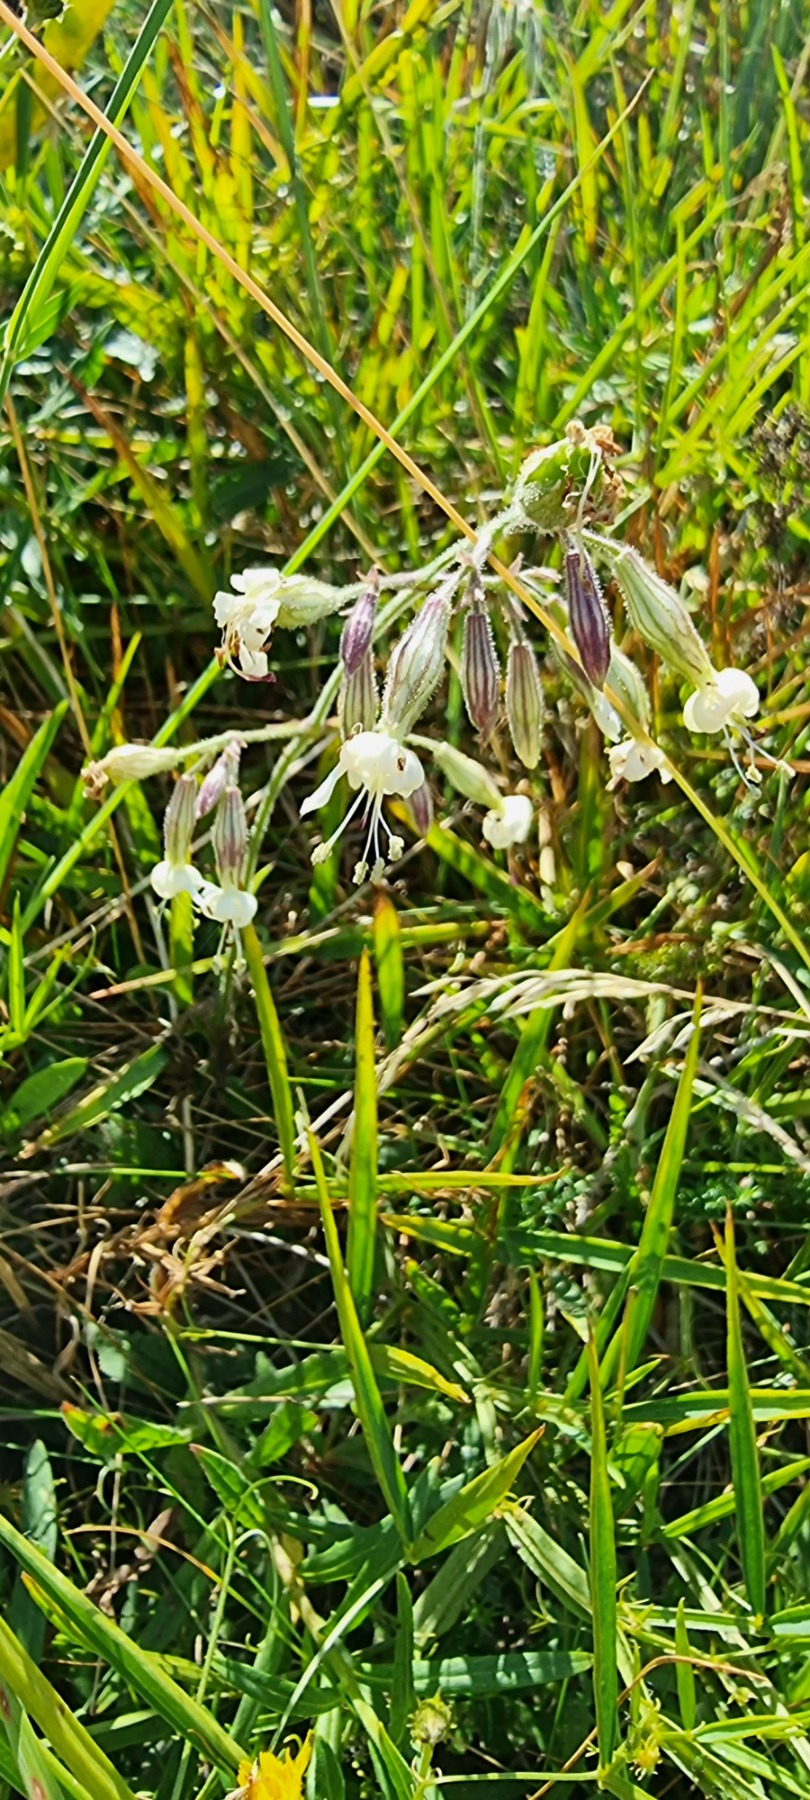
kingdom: Plantae
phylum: Tracheophyta
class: Magnoliopsida
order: Caryophyllales
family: Caryophyllaceae
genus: Silene
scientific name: Silene nutans
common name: Nikkende limurt
